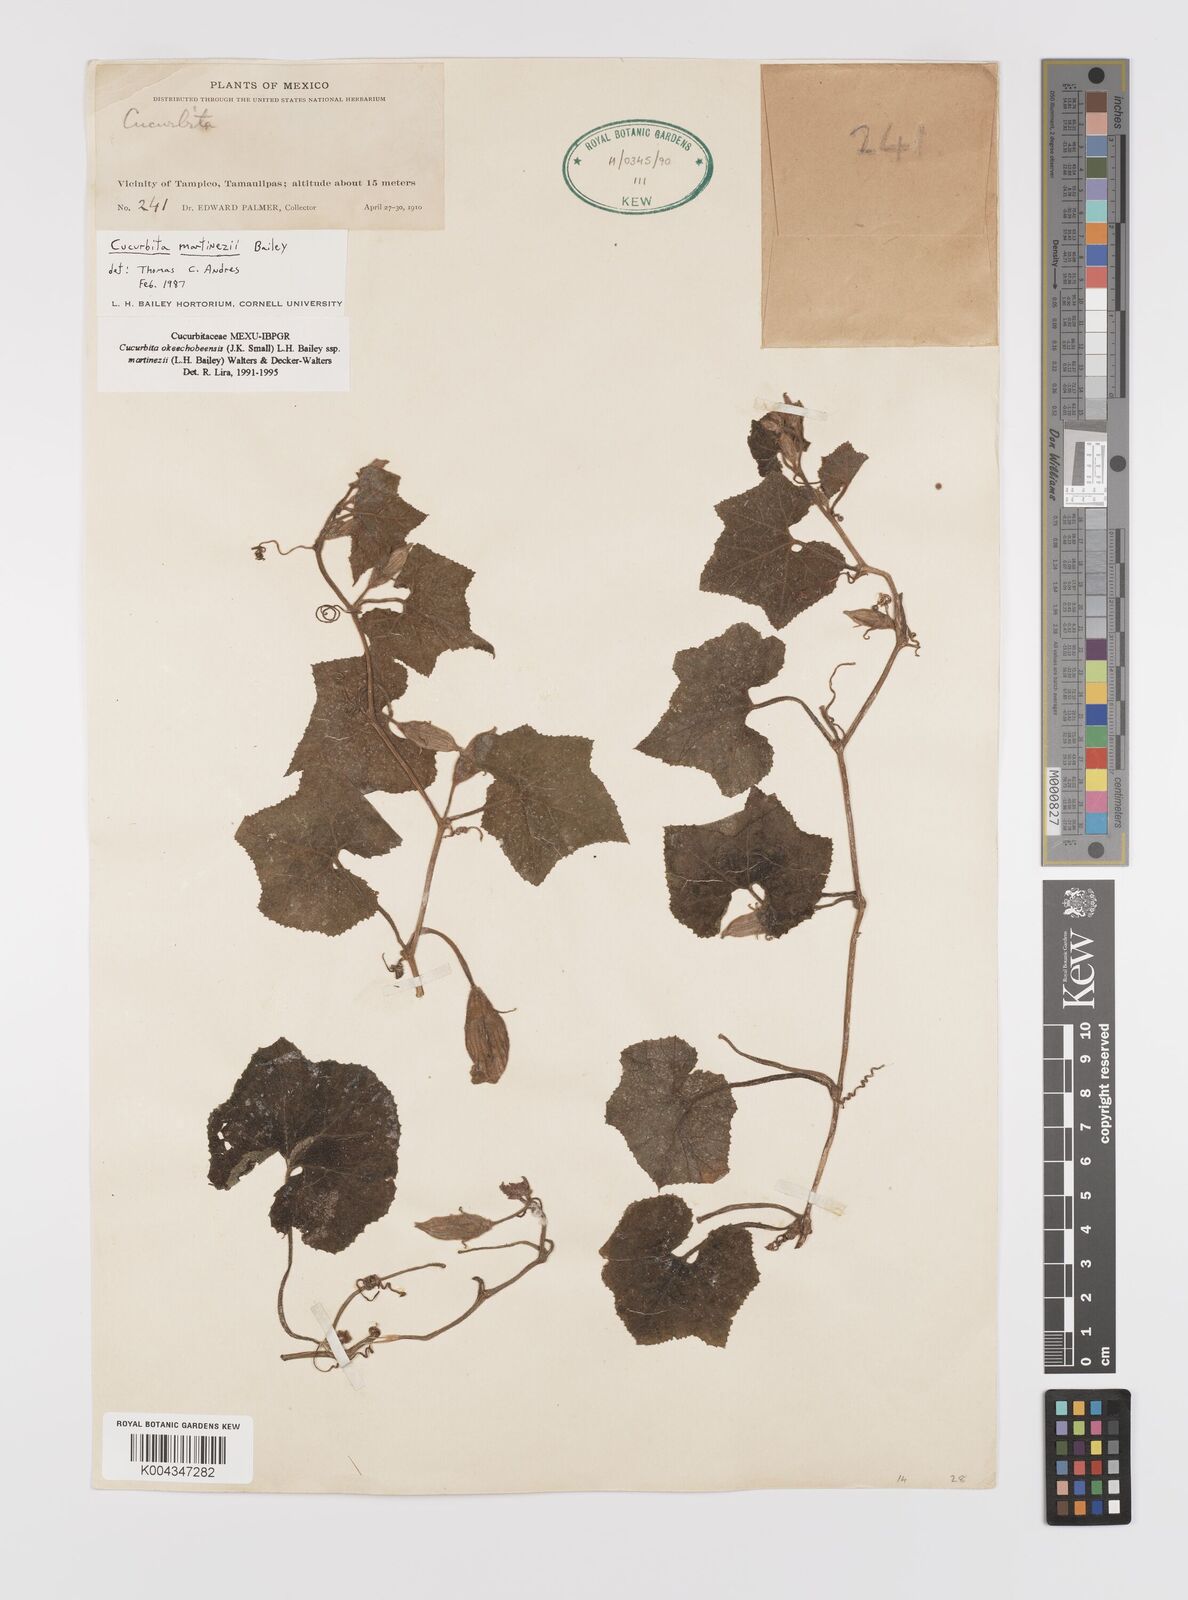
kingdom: Plantae
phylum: Tracheophyta
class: Magnoliopsida
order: Cucurbitales
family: Cucurbitaceae
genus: Cucurbita
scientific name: Cucurbita okeechobeensis
